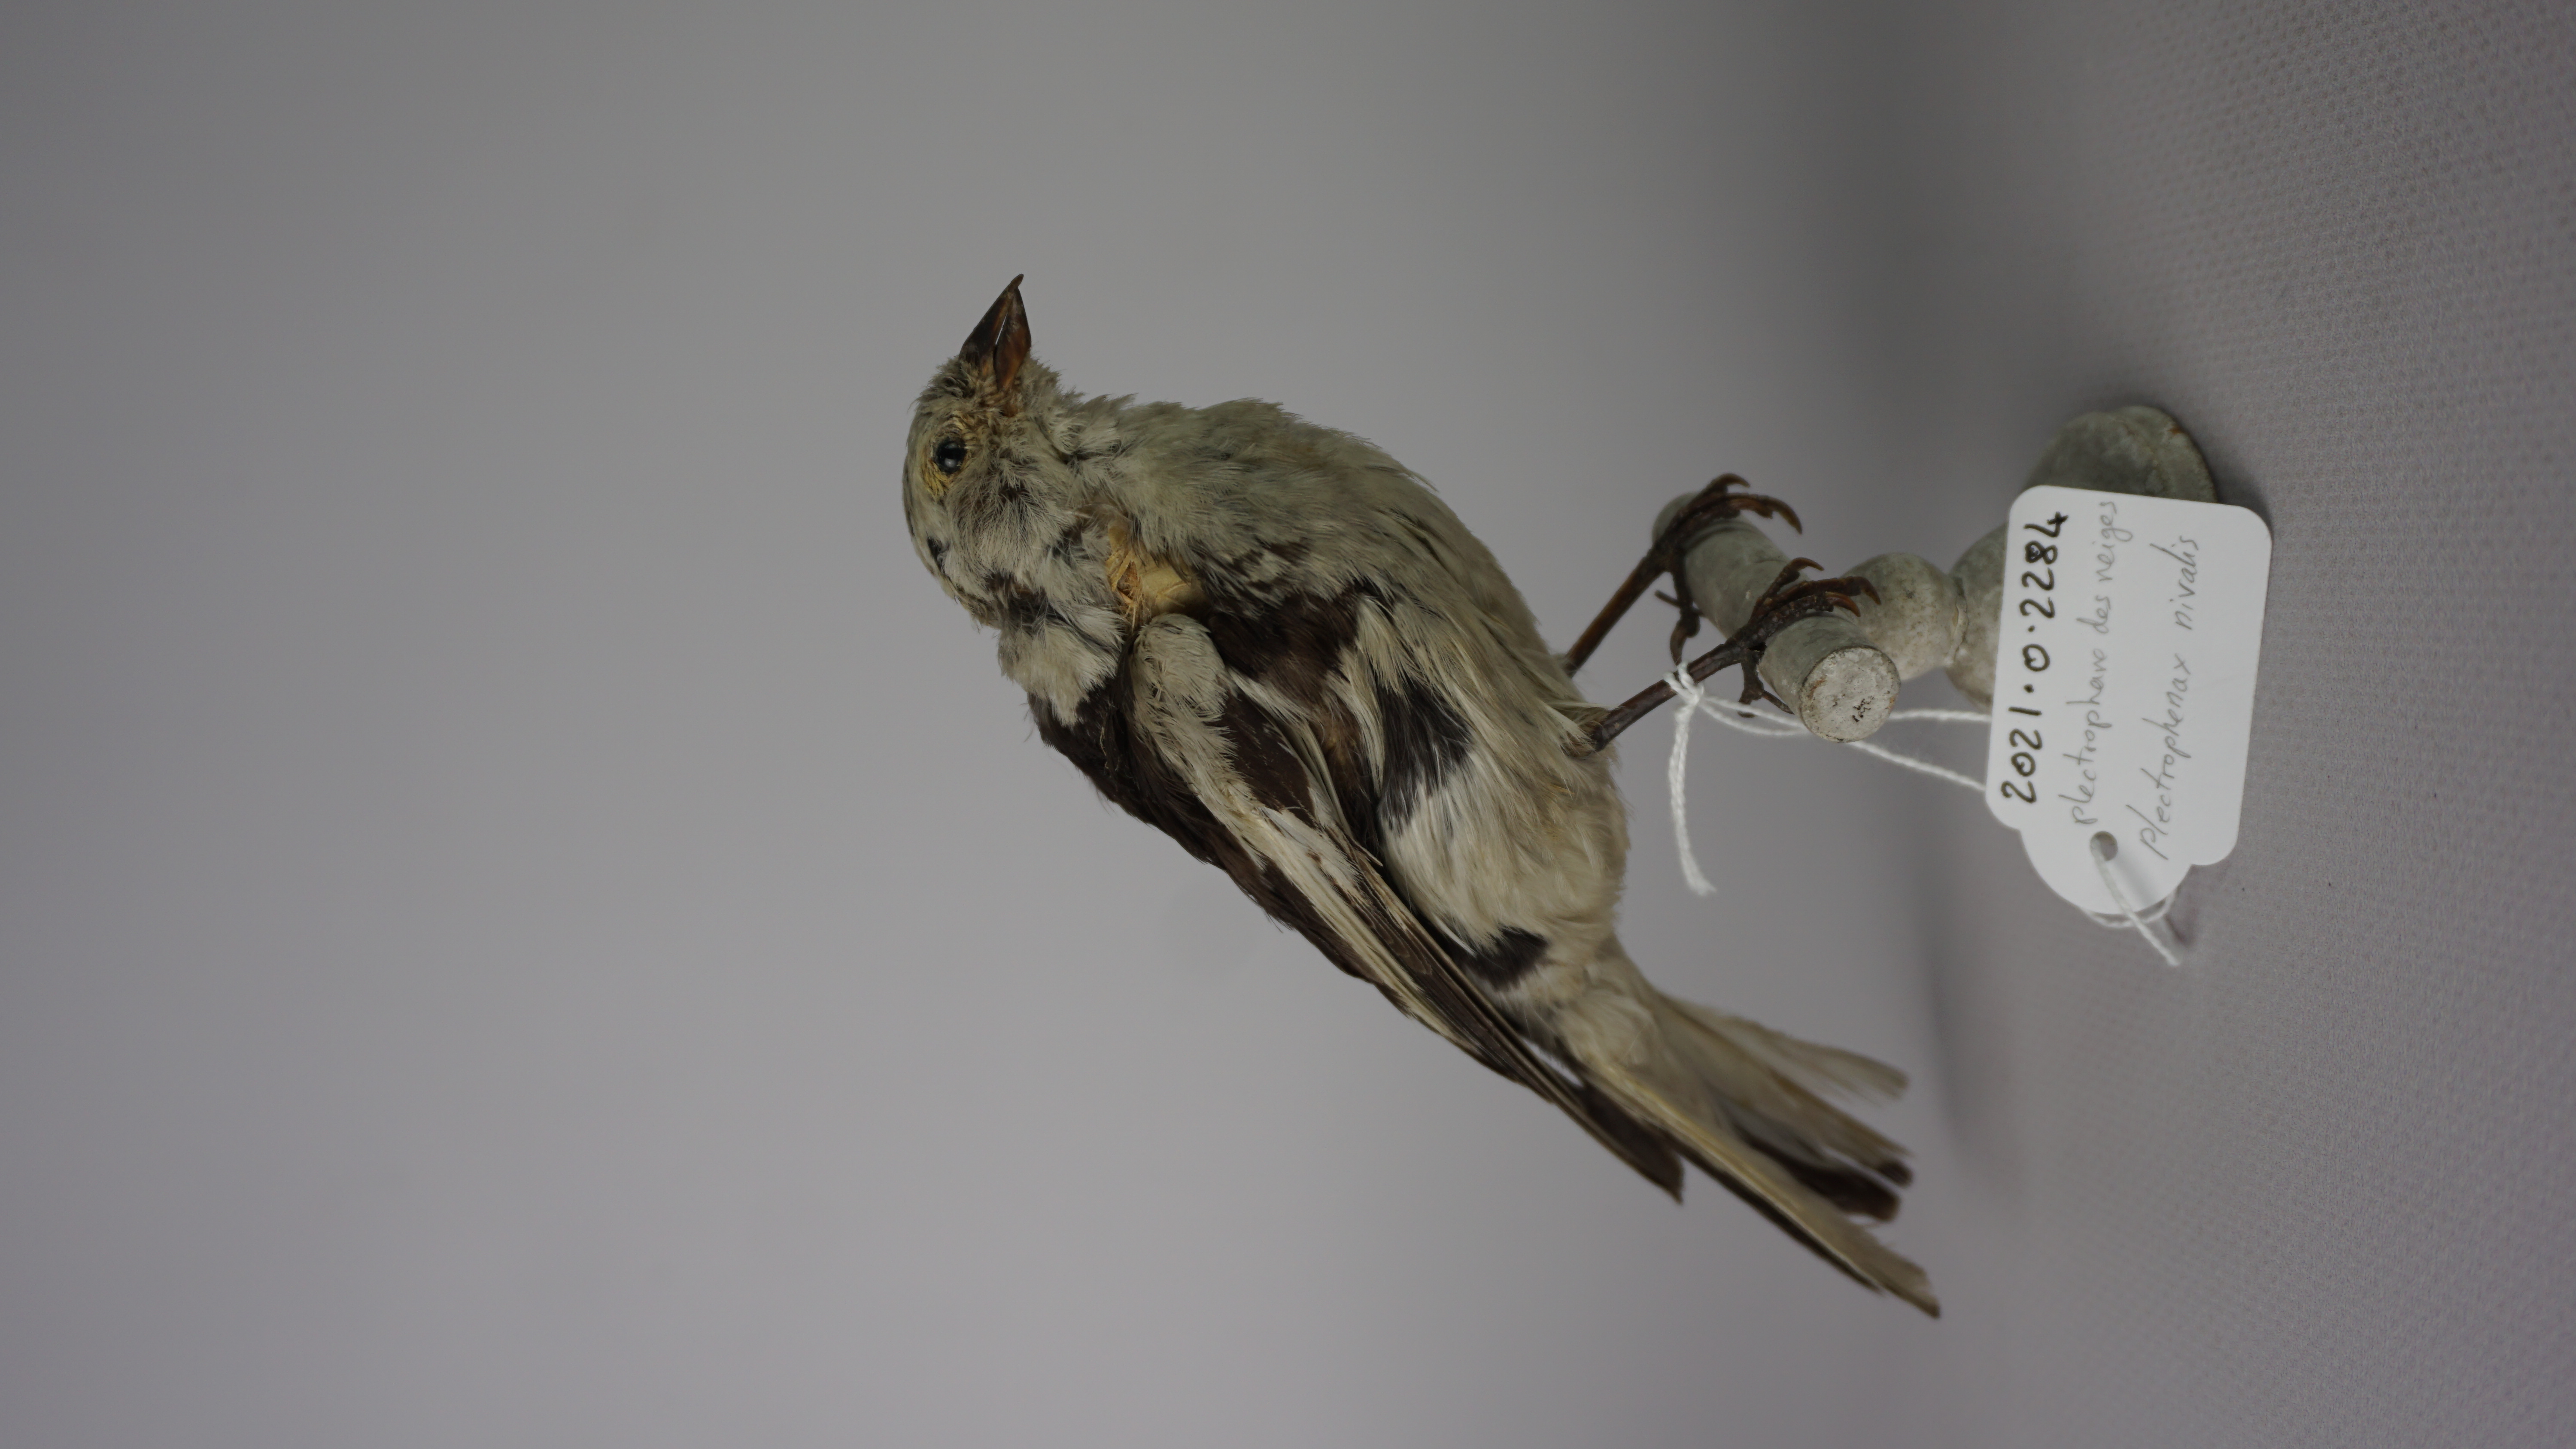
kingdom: Animalia
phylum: Chordata
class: Aves
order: Passeriformes
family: Calcariidae
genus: Plectrophenax
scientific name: Plectrophenax nivalis
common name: Snow bunting
